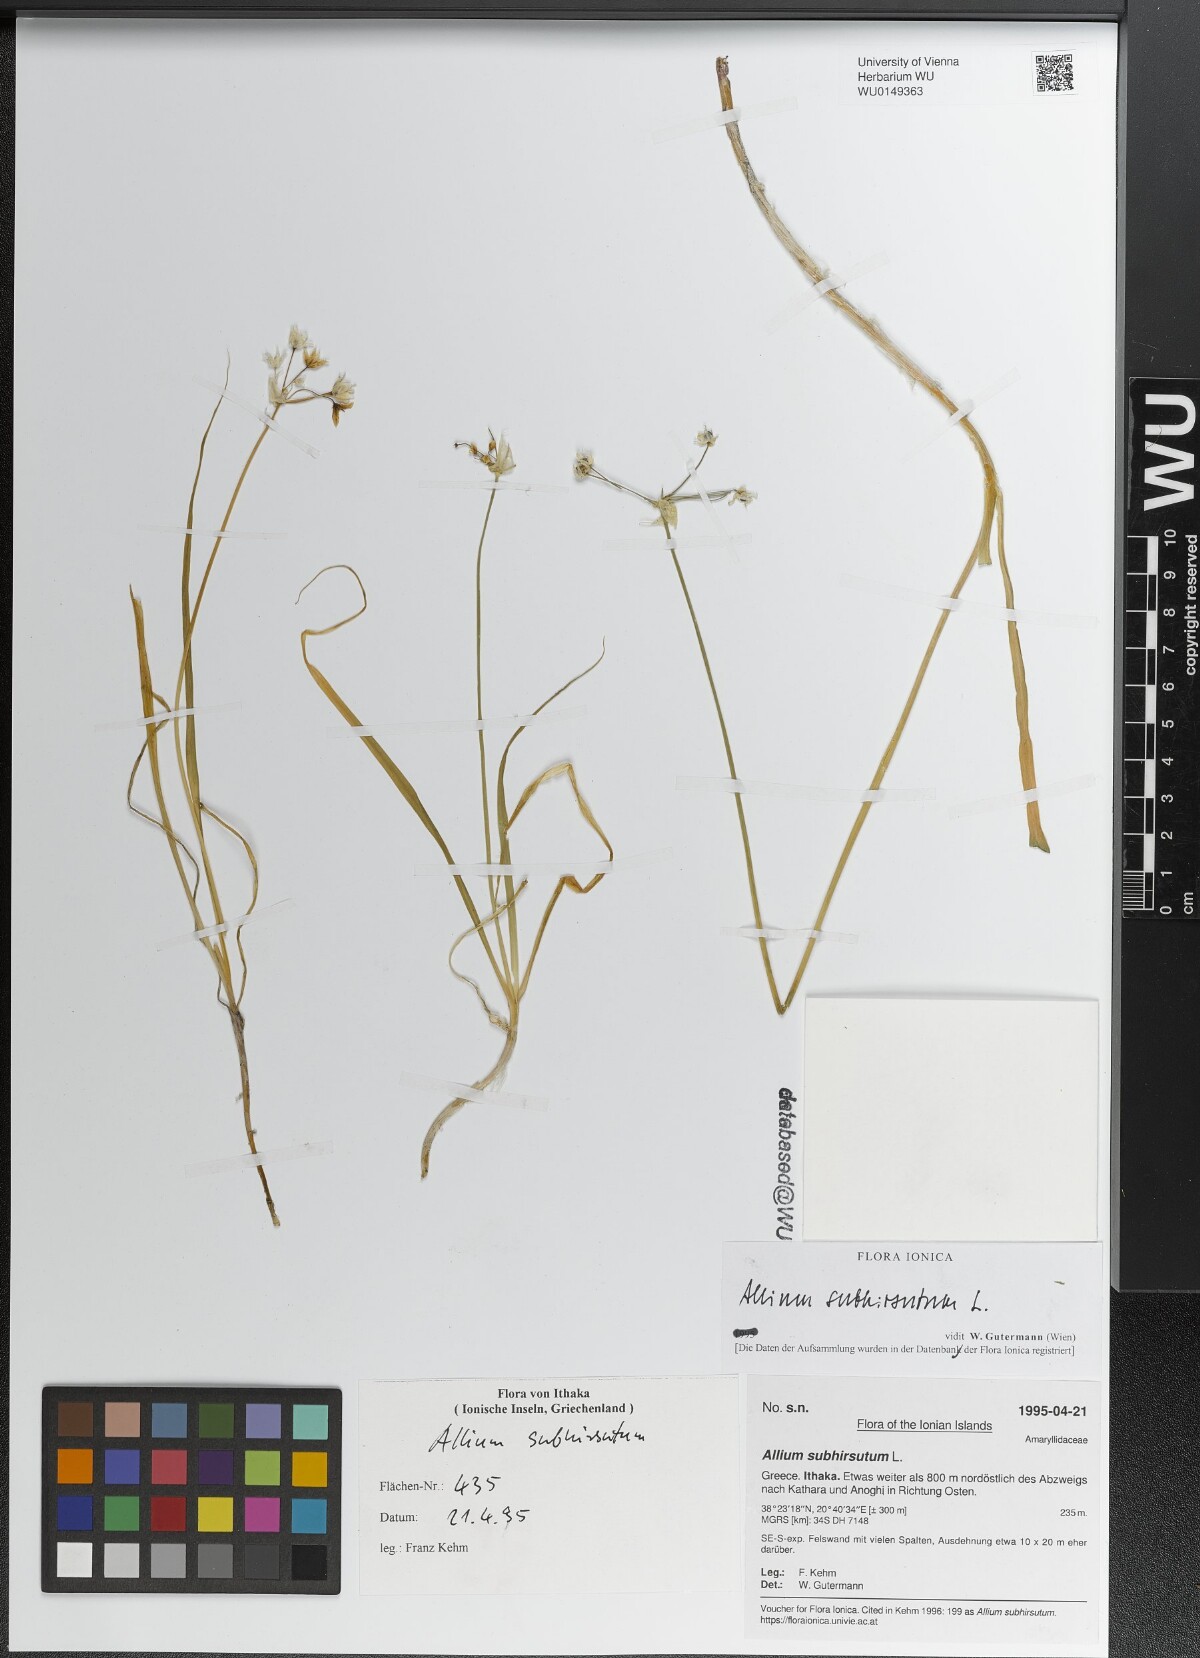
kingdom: Plantae
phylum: Tracheophyta
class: Liliopsida
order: Asparagales
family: Amaryllidaceae
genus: Allium
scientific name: Allium subhirsutum
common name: Hairy garlic
